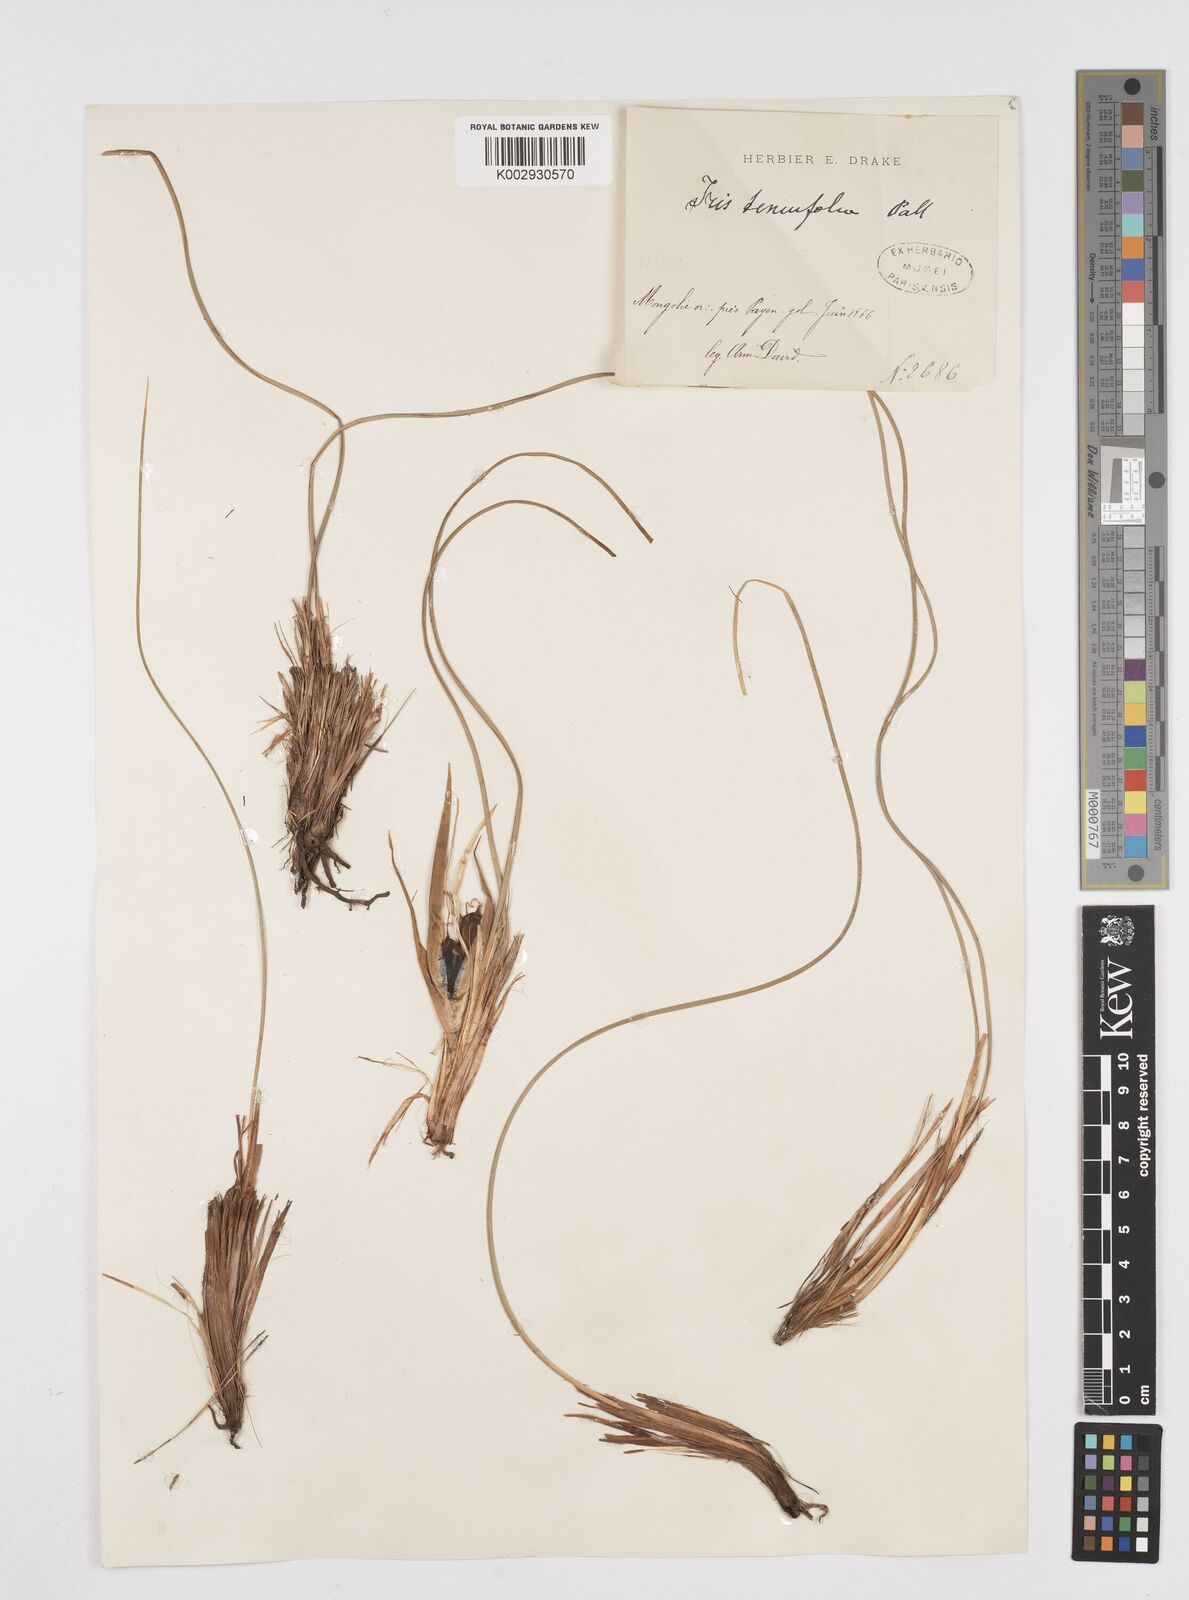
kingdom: Plantae
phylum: Tracheophyta
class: Liliopsida
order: Asparagales
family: Iridaceae
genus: Iris
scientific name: Iris tenuifolia
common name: Slender-leaf iris
